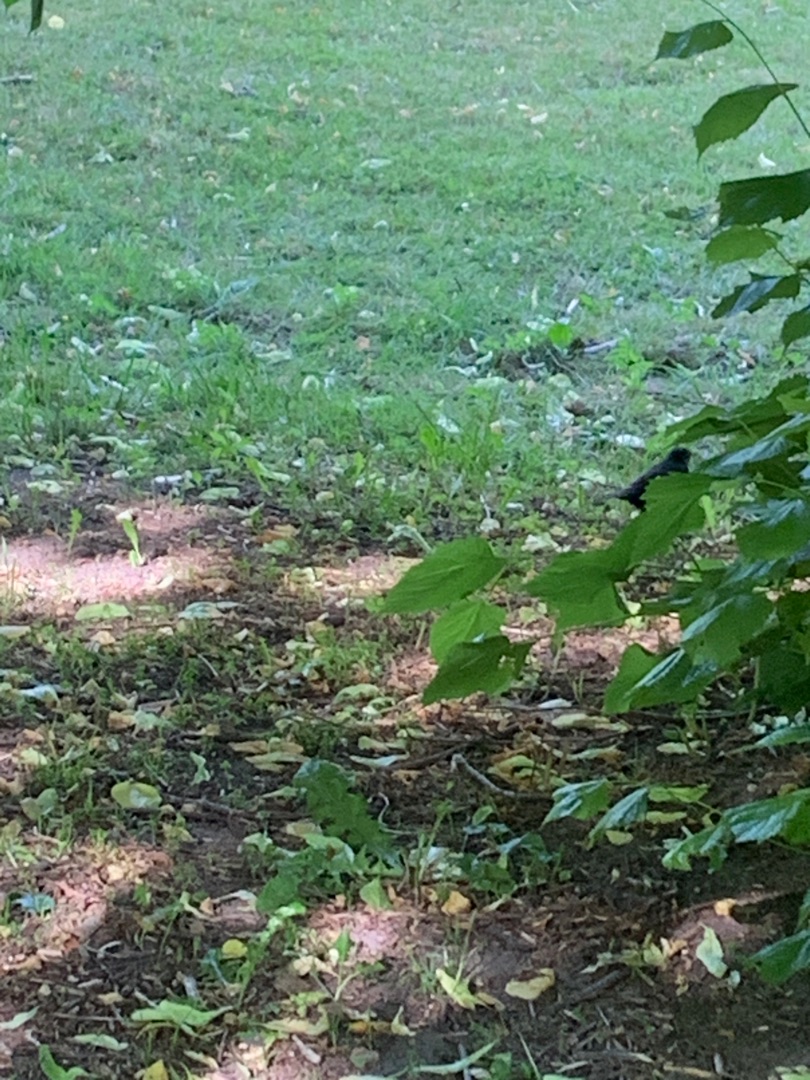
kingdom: Animalia
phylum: Chordata
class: Aves
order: Passeriformes
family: Turdidae
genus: Turdus
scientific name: Turdus merula
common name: Solsort
